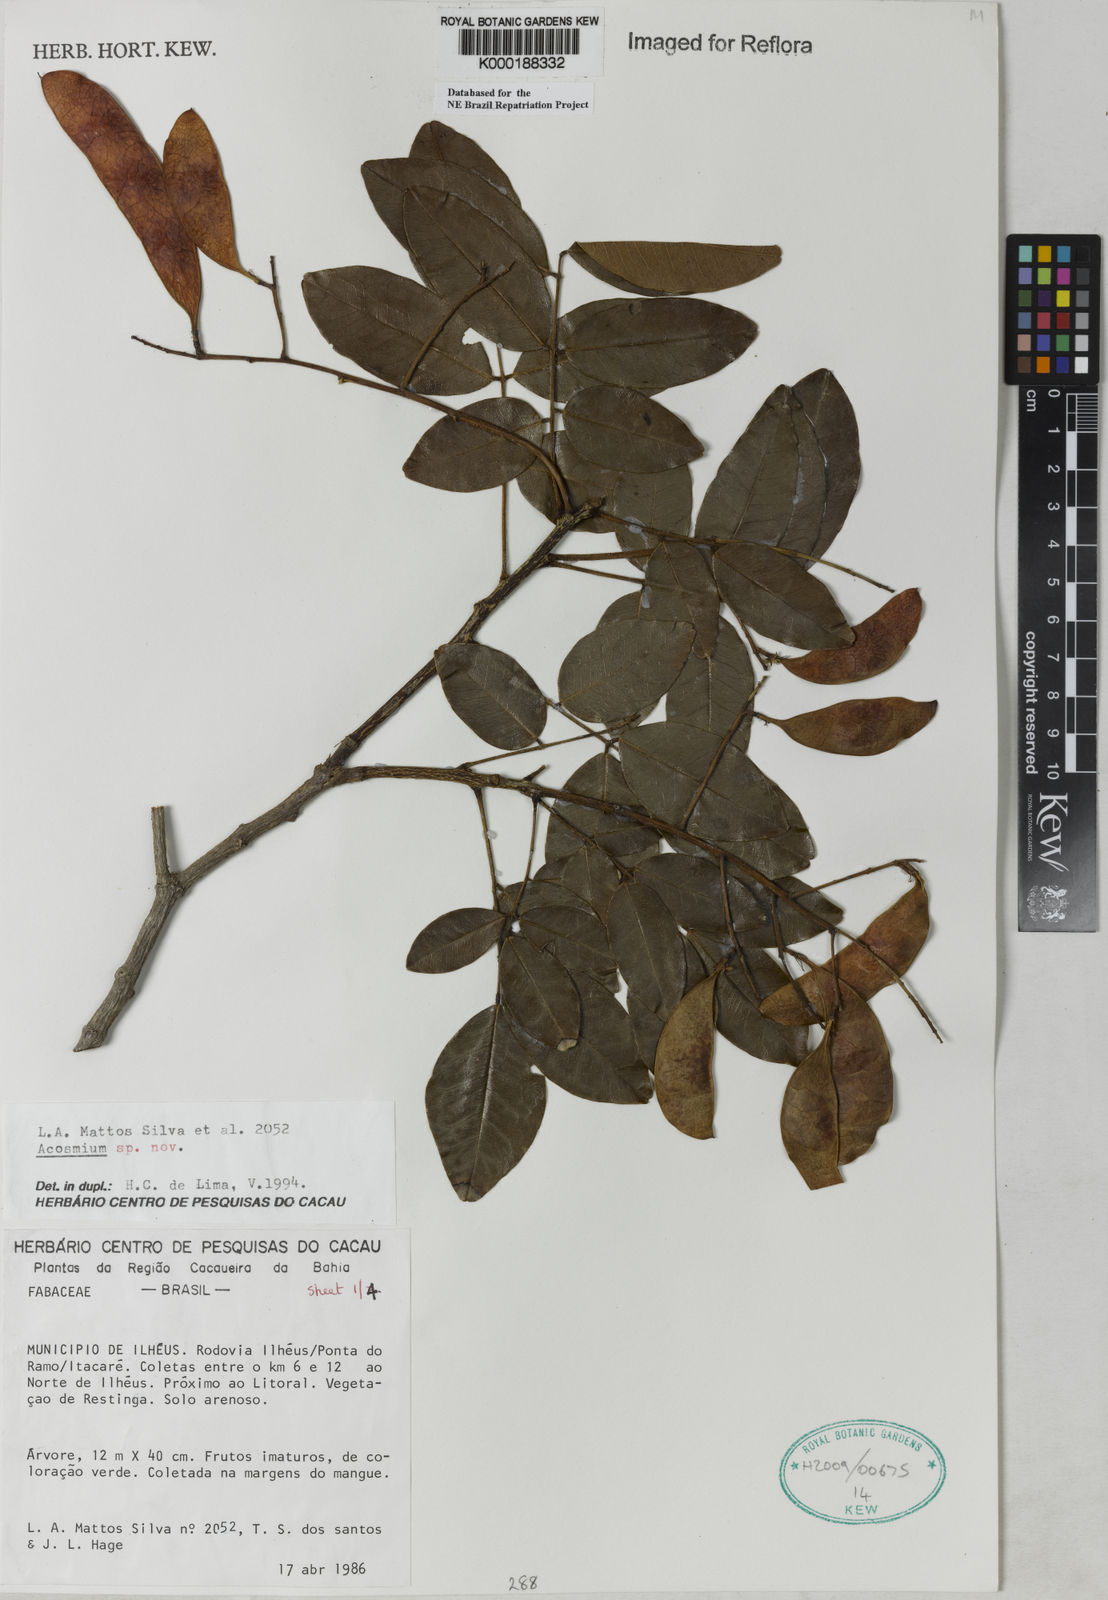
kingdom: Plantae
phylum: Tracheophyta
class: Magnoliopsida
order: Fabales
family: Fabaceae
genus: Leptolobium
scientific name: Leptolobium tenuifolium
